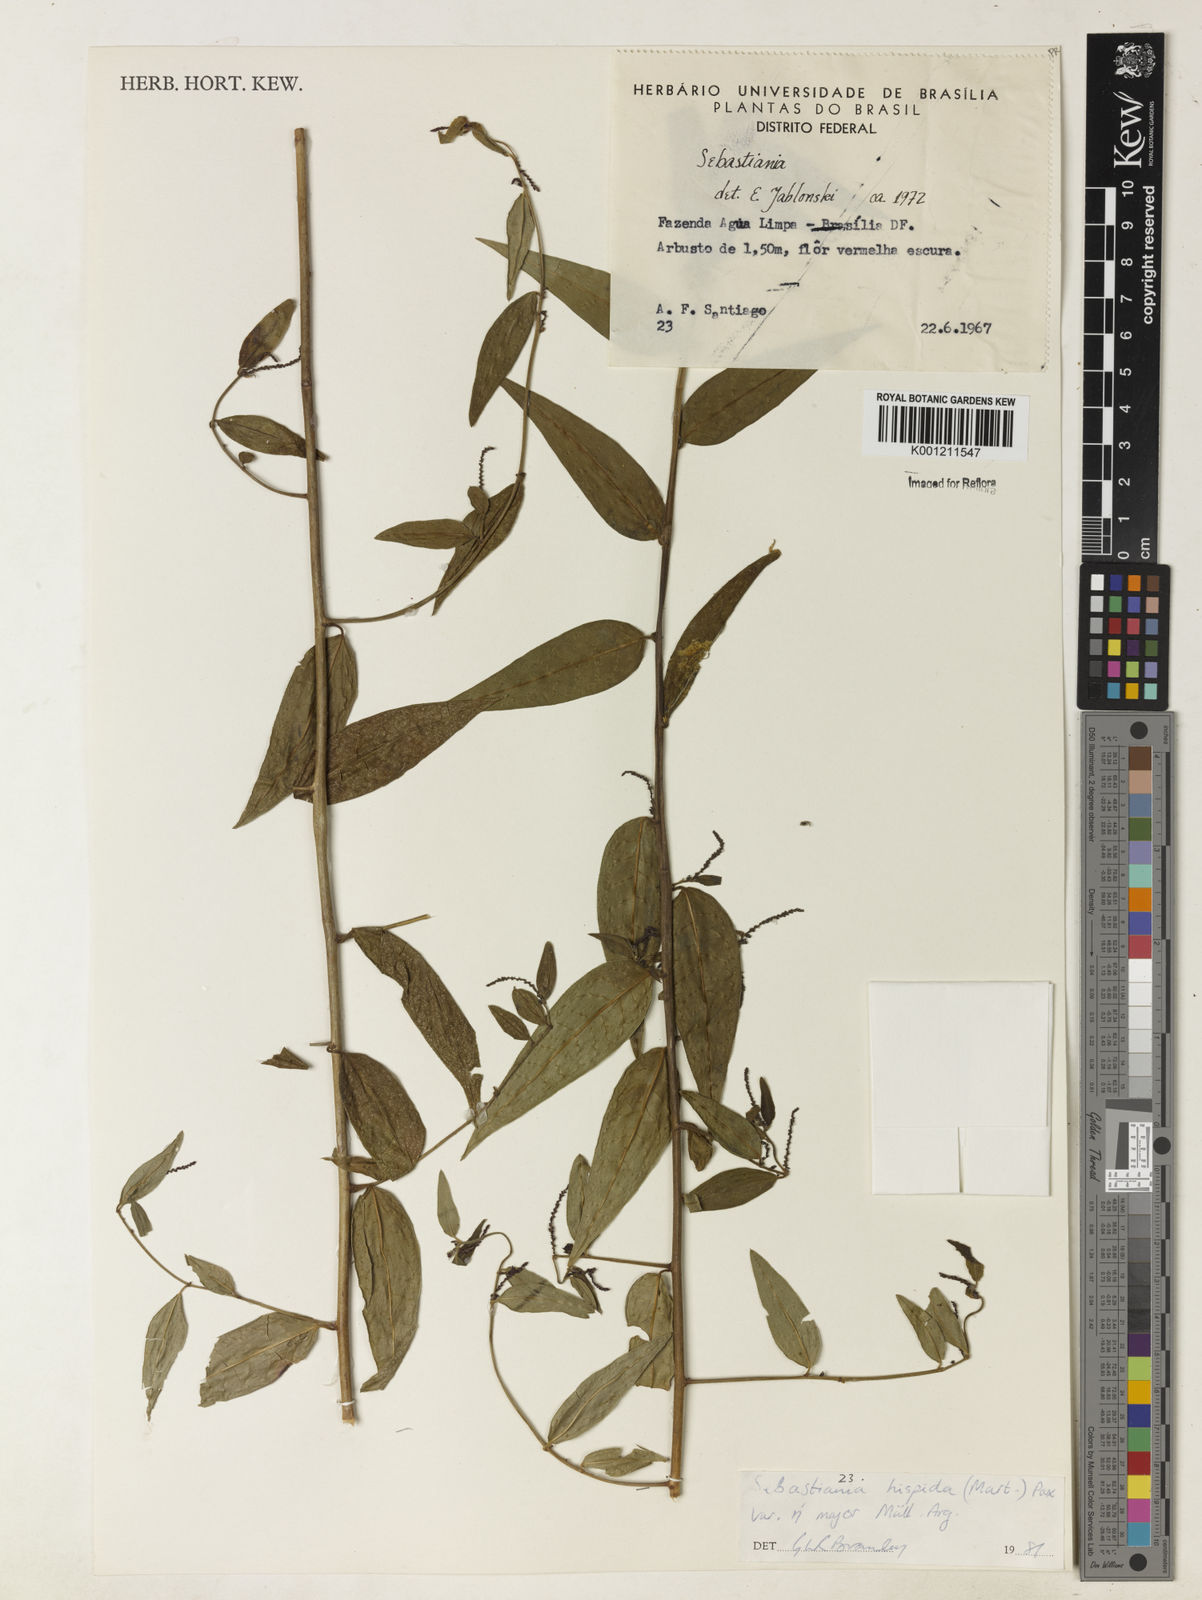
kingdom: Plantae
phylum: Tracheophyta
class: Magnoliopsida
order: Malpighiales
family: Euphorbiaceae
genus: Microstachys
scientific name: Microstachys hispida
